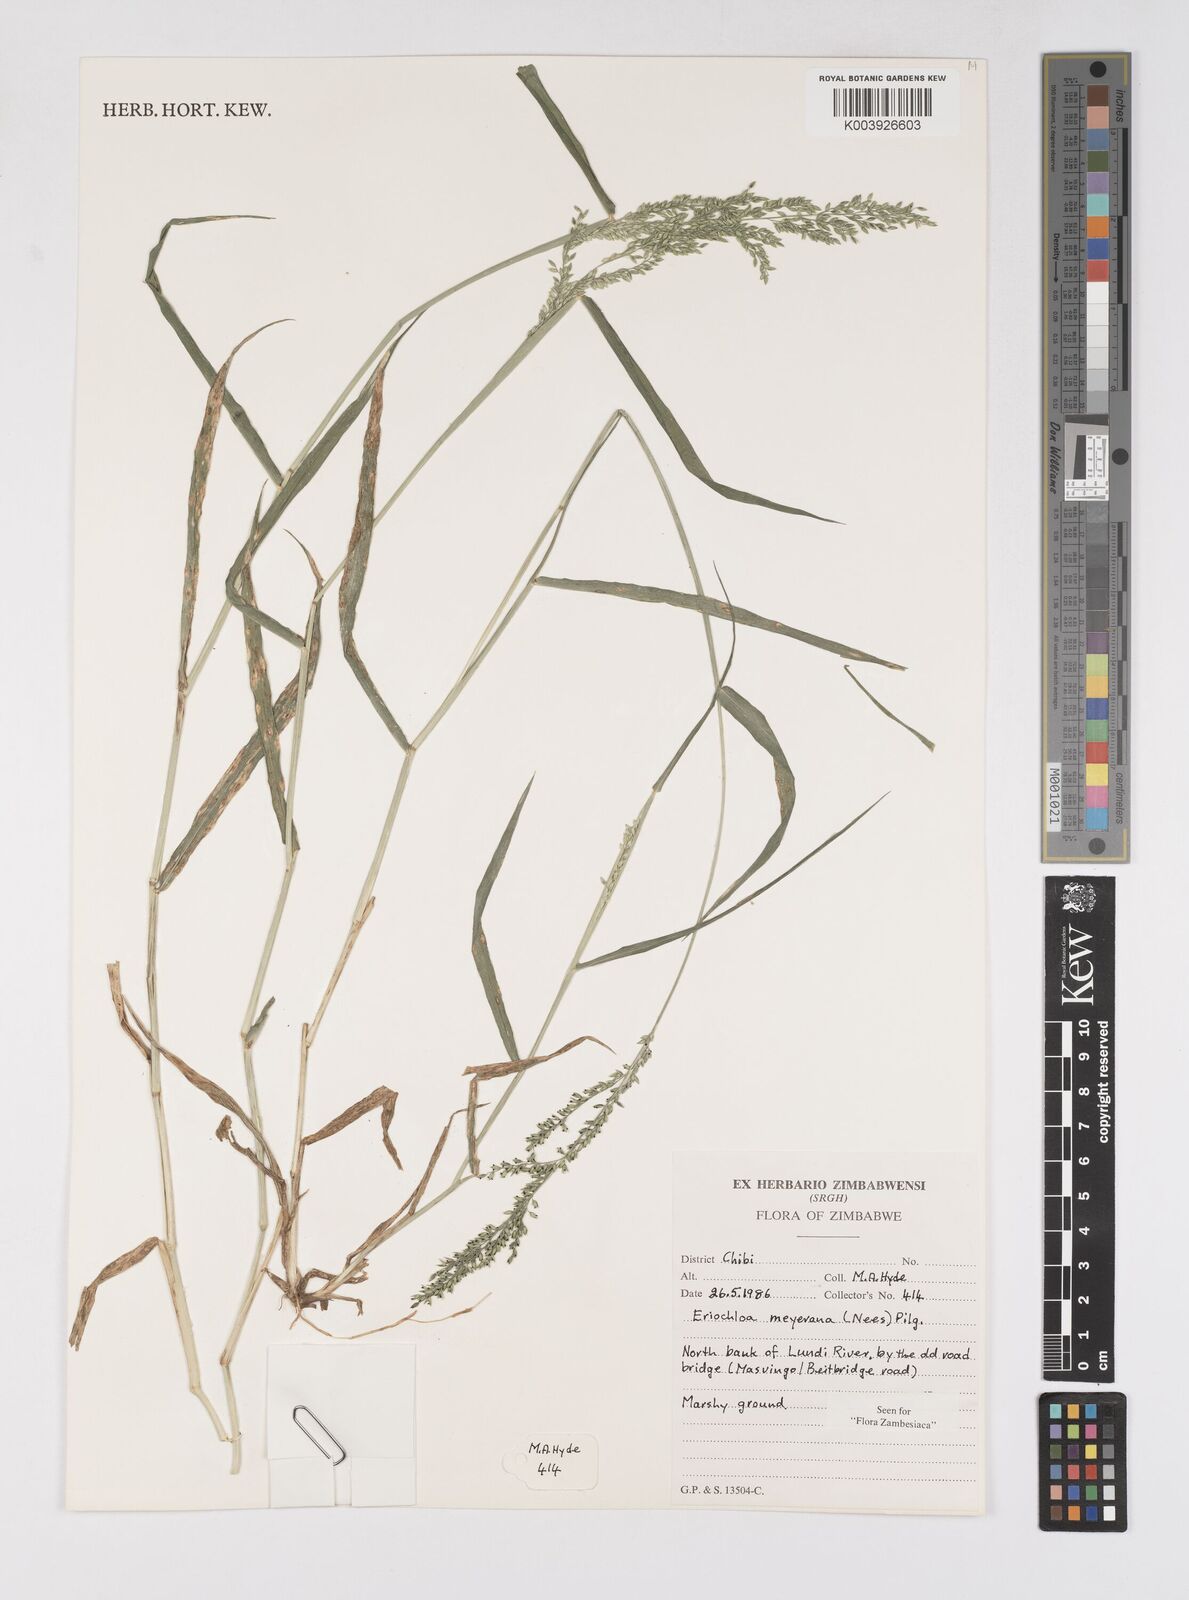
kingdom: Plantae
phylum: Tracheophyta
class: Liliopsida
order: Poales
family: Poaceae
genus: Eriochloa
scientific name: Eriochloa meyeriana
